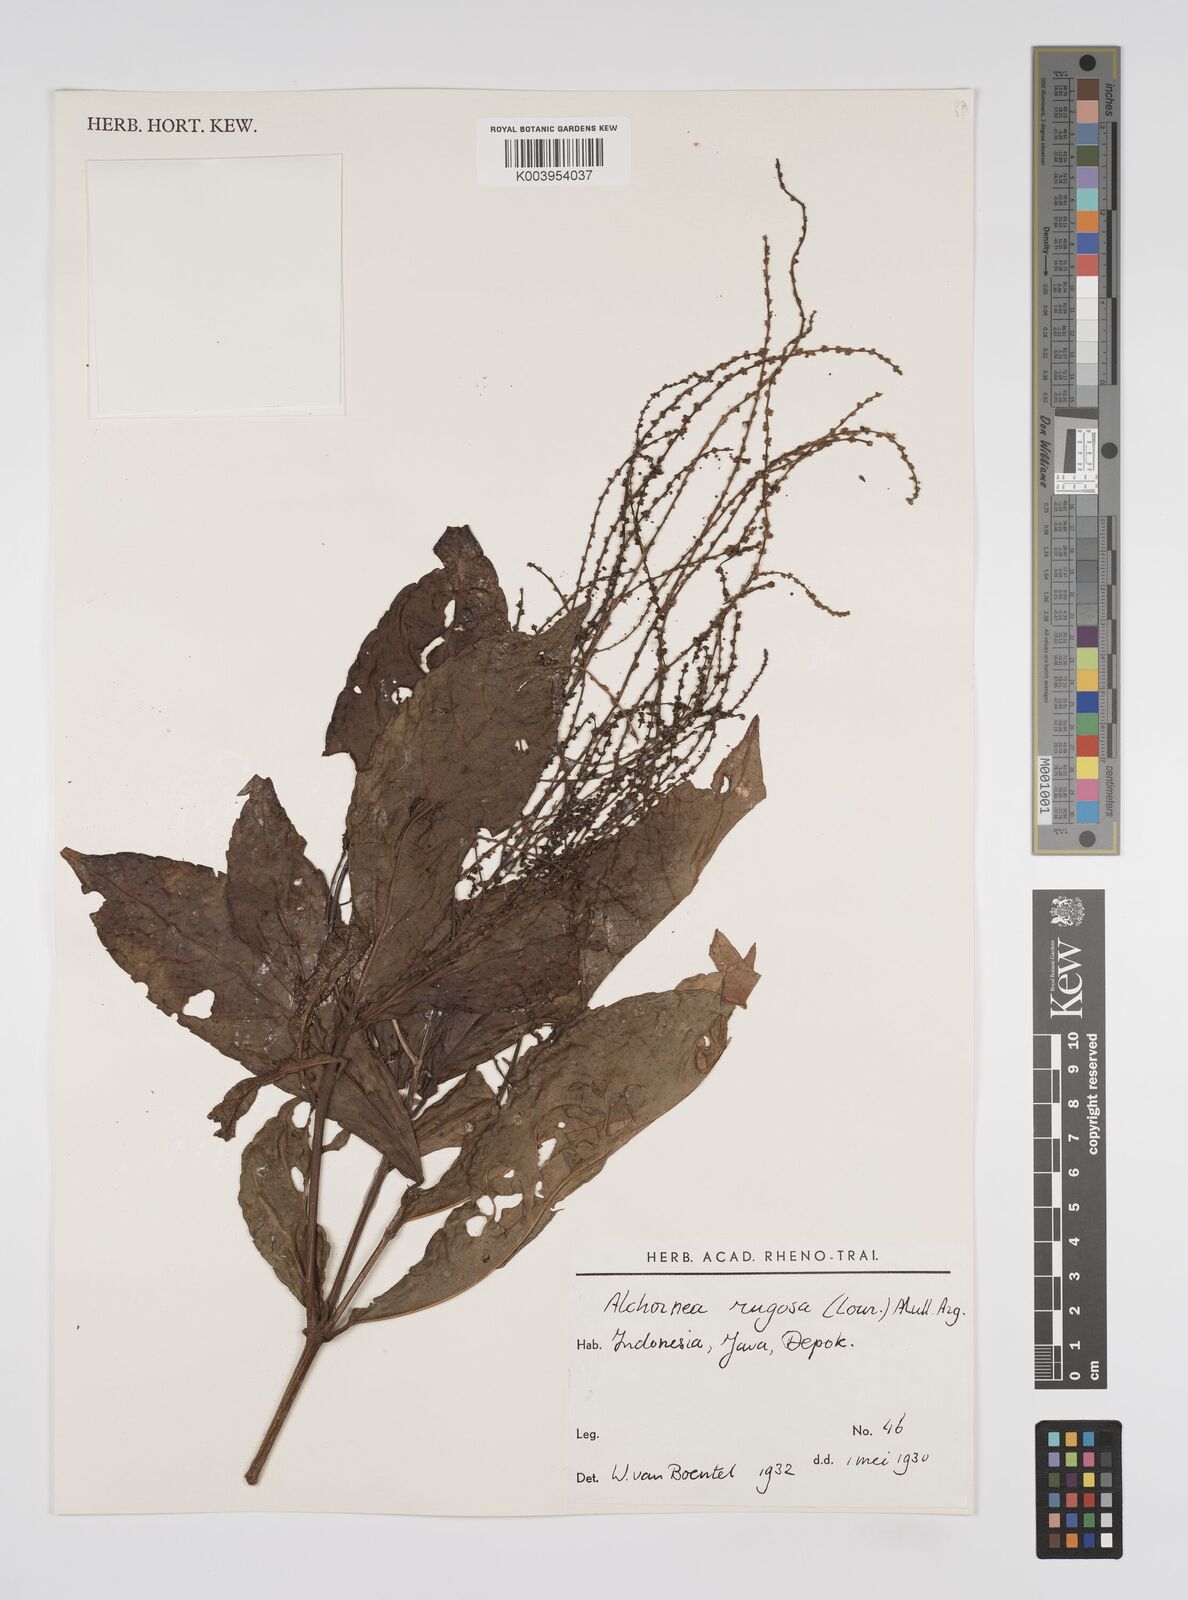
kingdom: Plantae
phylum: Tracheophyta
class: Magnoliopsida
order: Malpighiales
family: Euphorbiaceae
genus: Alchornea
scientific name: Alchornea rugosa
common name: Alchorntree
